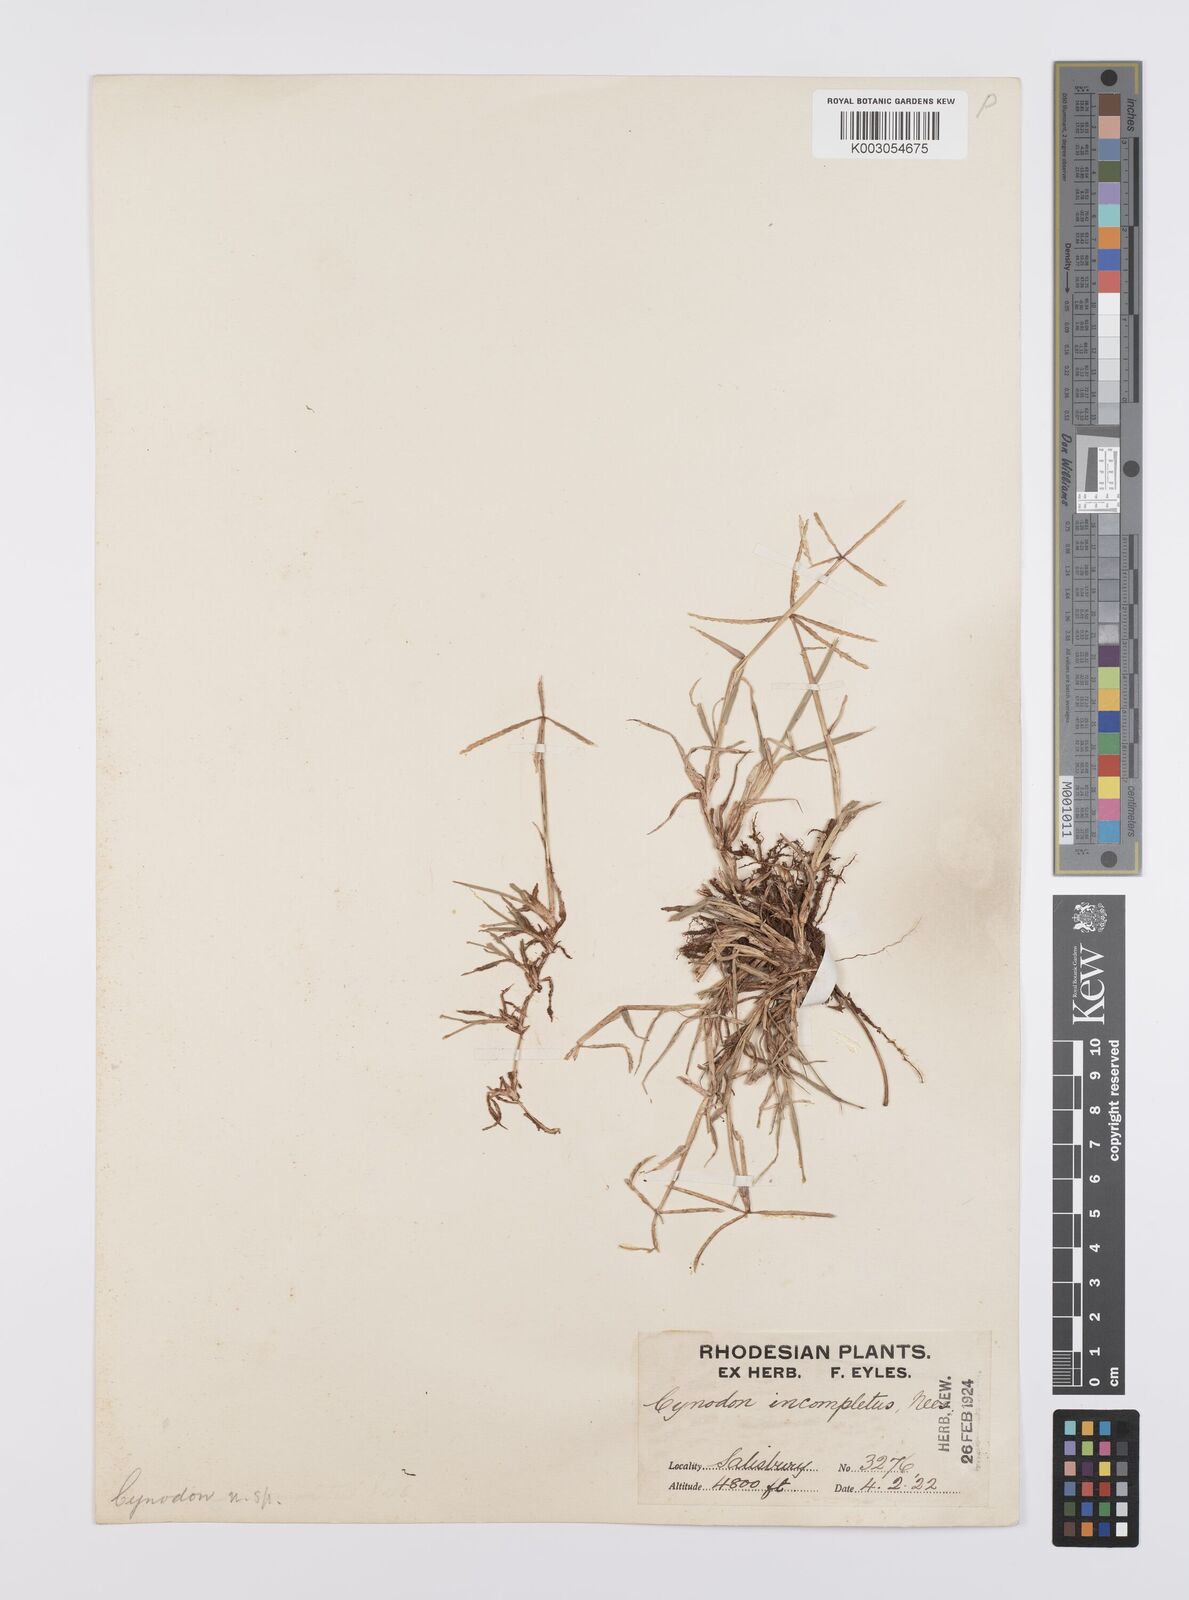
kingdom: Plantae
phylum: Tracheophyta
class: Liliopsida
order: Poales
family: Poaceae
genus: Cynodon
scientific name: Cynodon incompletus
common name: African bermuda-grass
